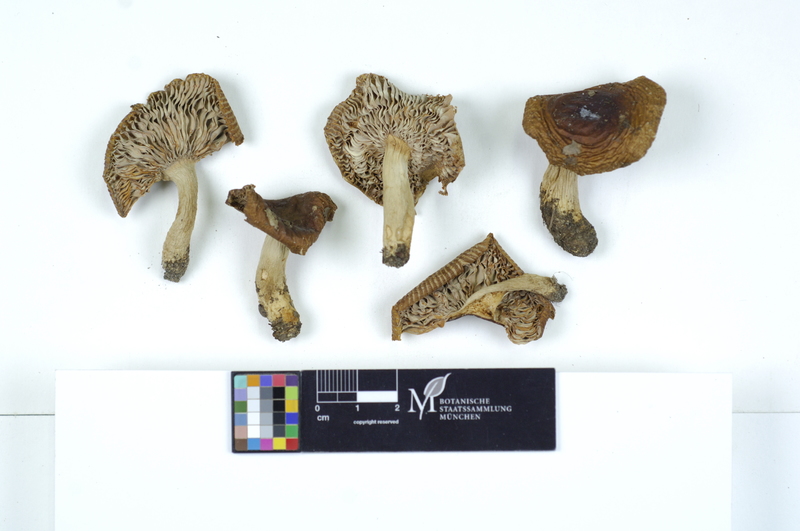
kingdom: Fungi
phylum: Basidiomycota
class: Agaricomycetes
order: Russulales
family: Russulaceae
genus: Russula
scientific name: Russula amoenolens
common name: Camembert brittlegill
